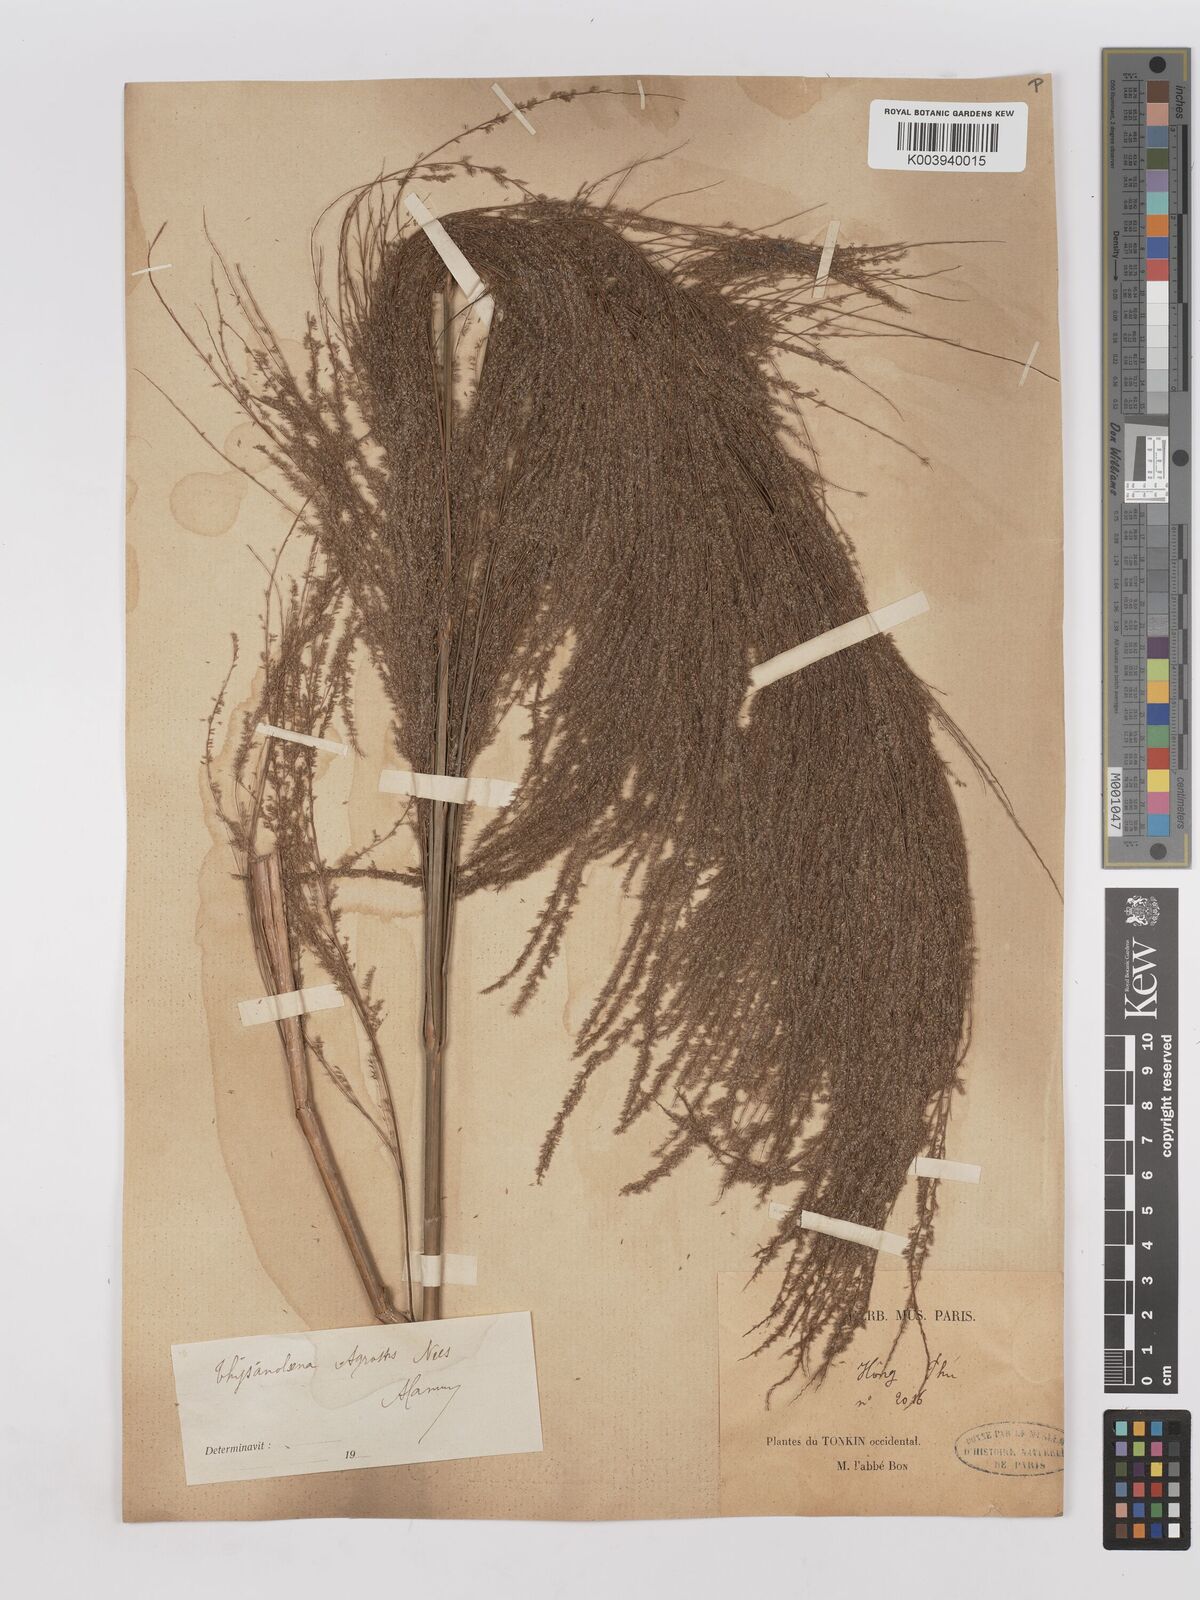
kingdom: Plantae
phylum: Tracheophyta
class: Liliopsida
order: Poales
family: Poaceae
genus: Thysanolaena
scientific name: Thysanolaena latifolia
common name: Tiger grass
